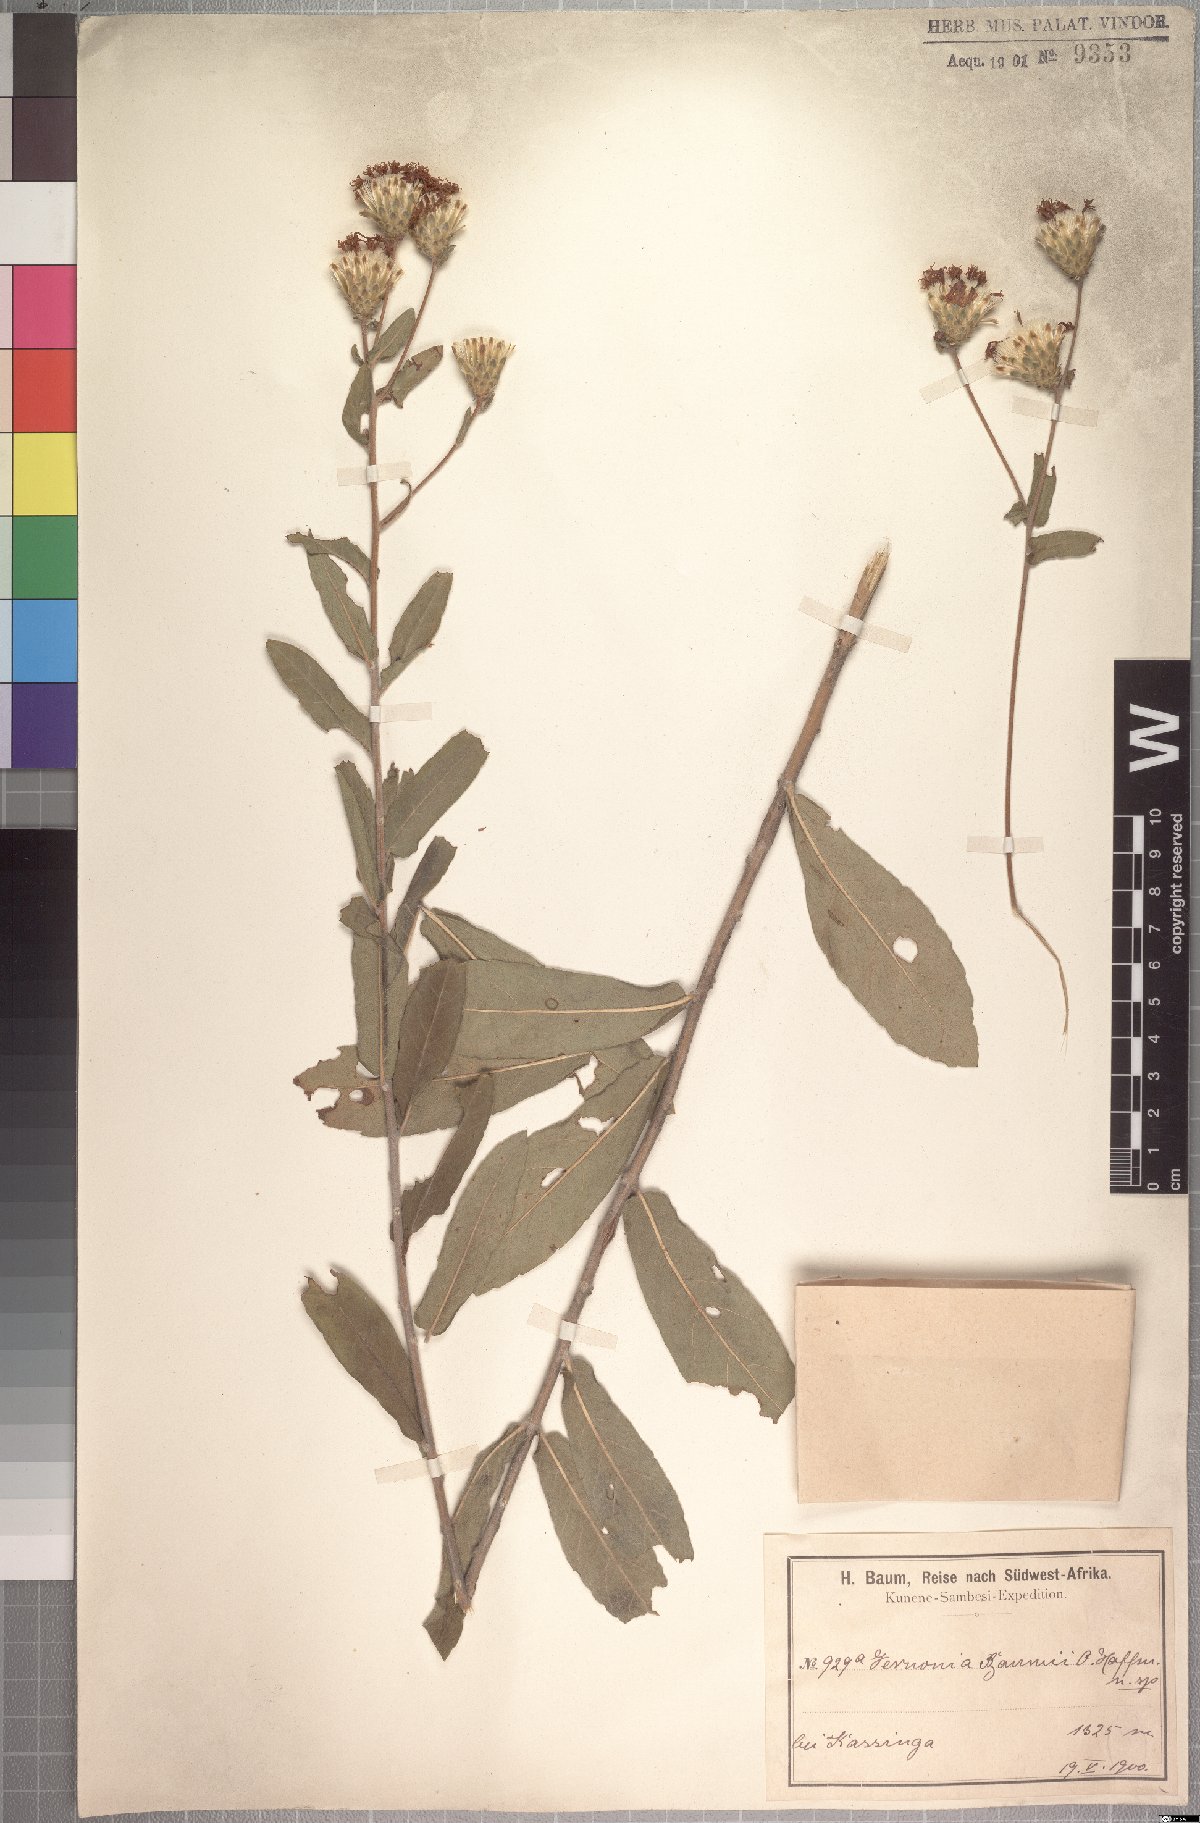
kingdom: Plantae
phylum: Tracheophyta
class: Magnoliopsida
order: Asterales
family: Asteraceae
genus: Vernonia
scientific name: Vernonia temnolepis
